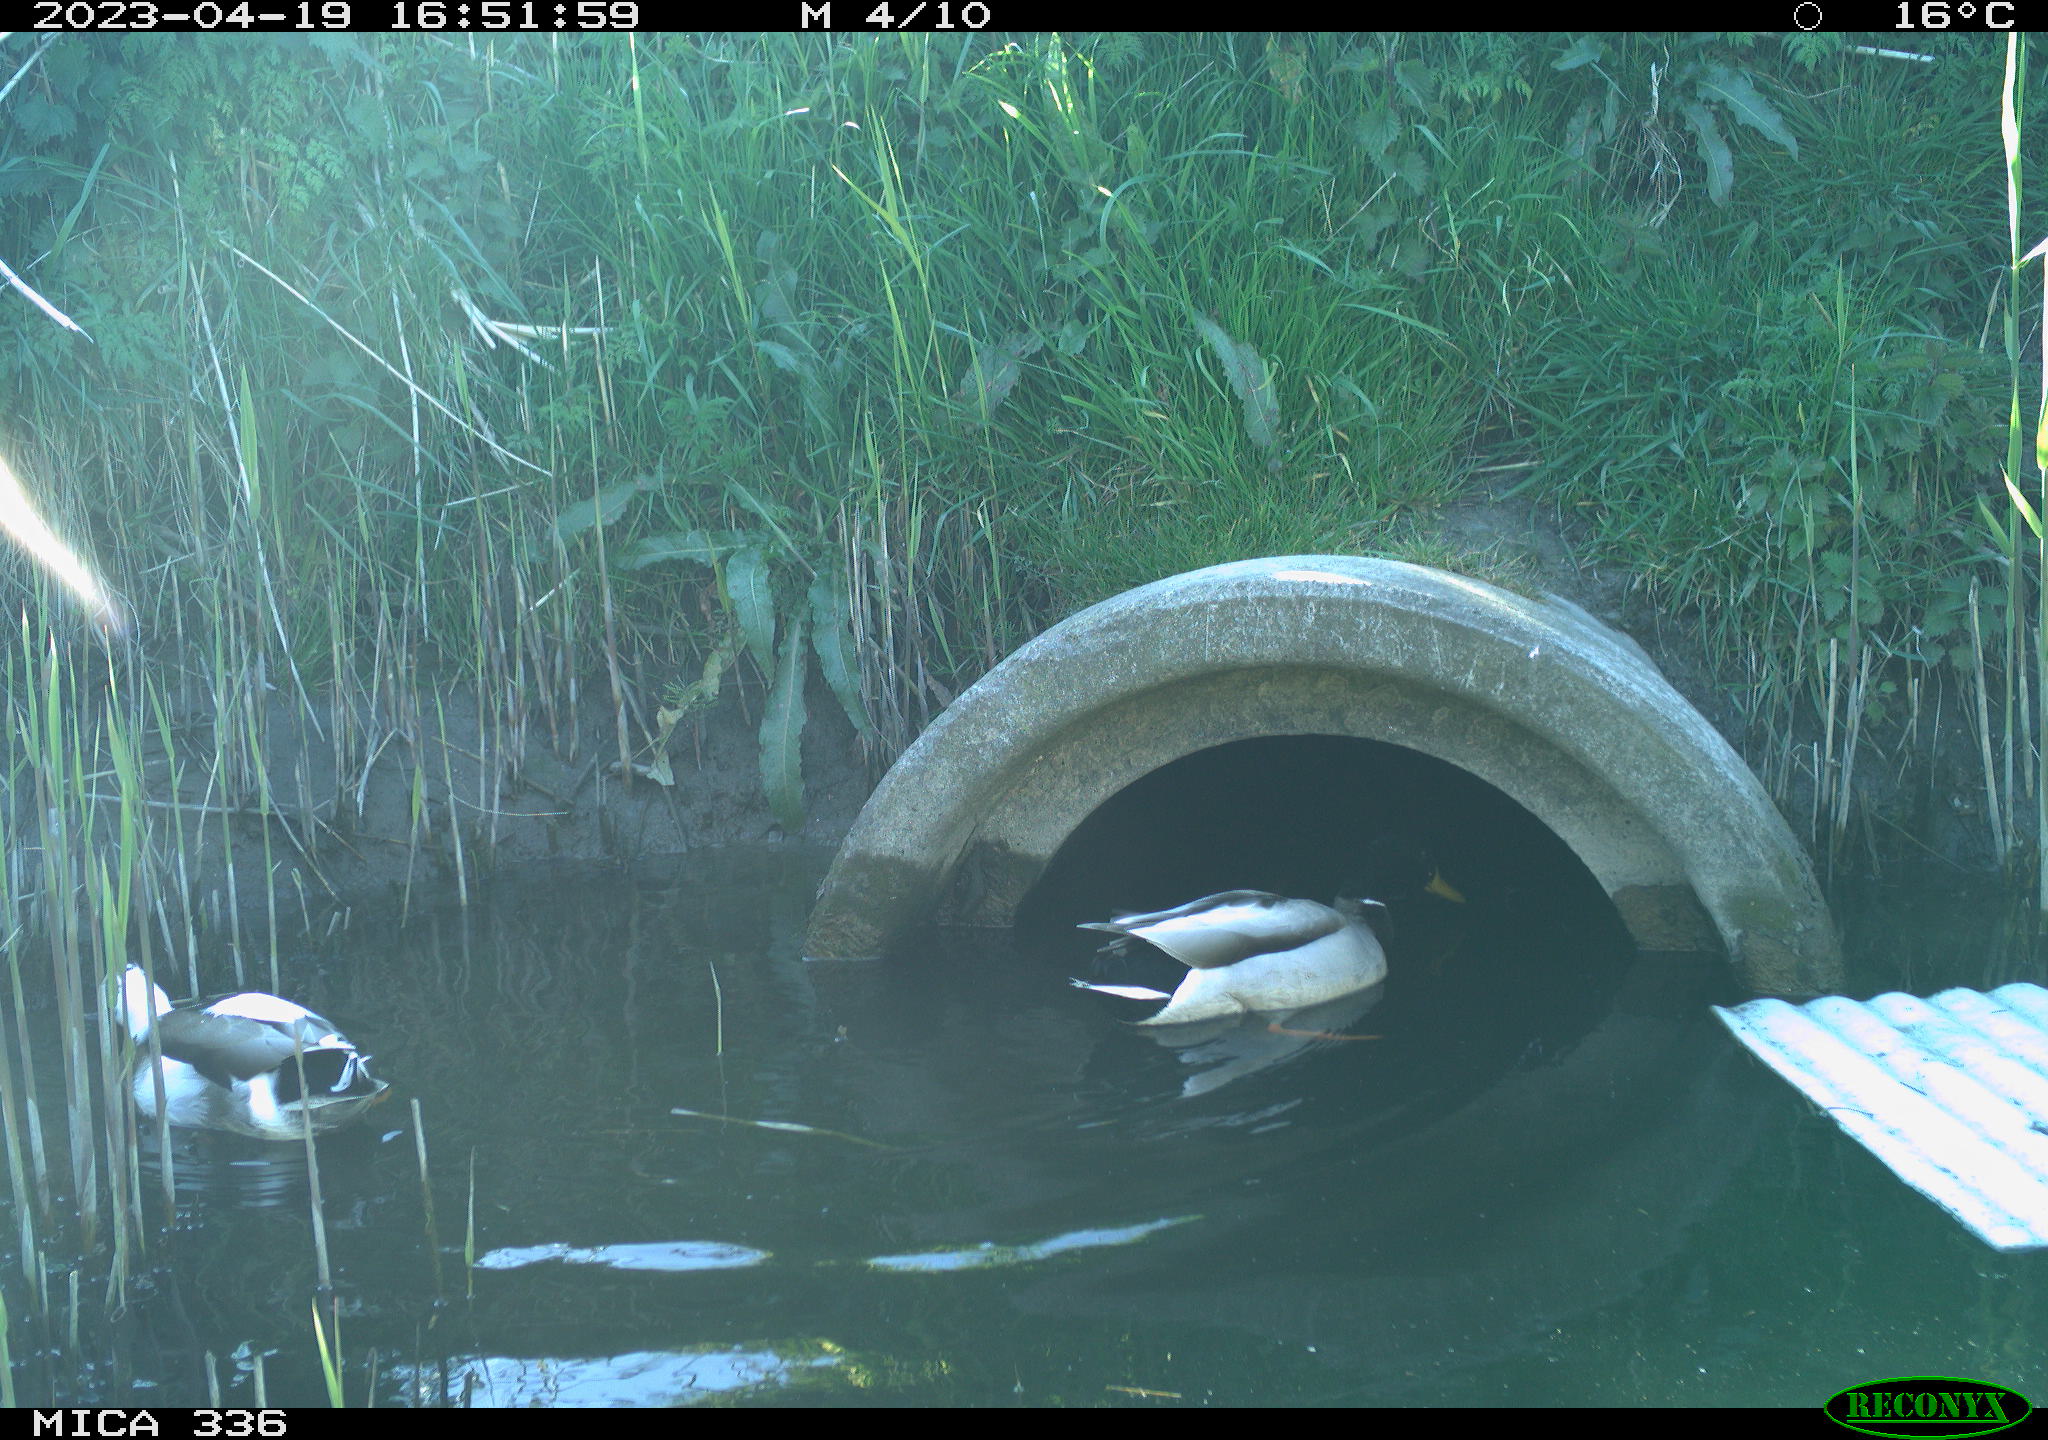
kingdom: Animalia
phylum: Chordata
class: Aves
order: Anseriformes
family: Anatidae
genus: Anas
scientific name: Anas
